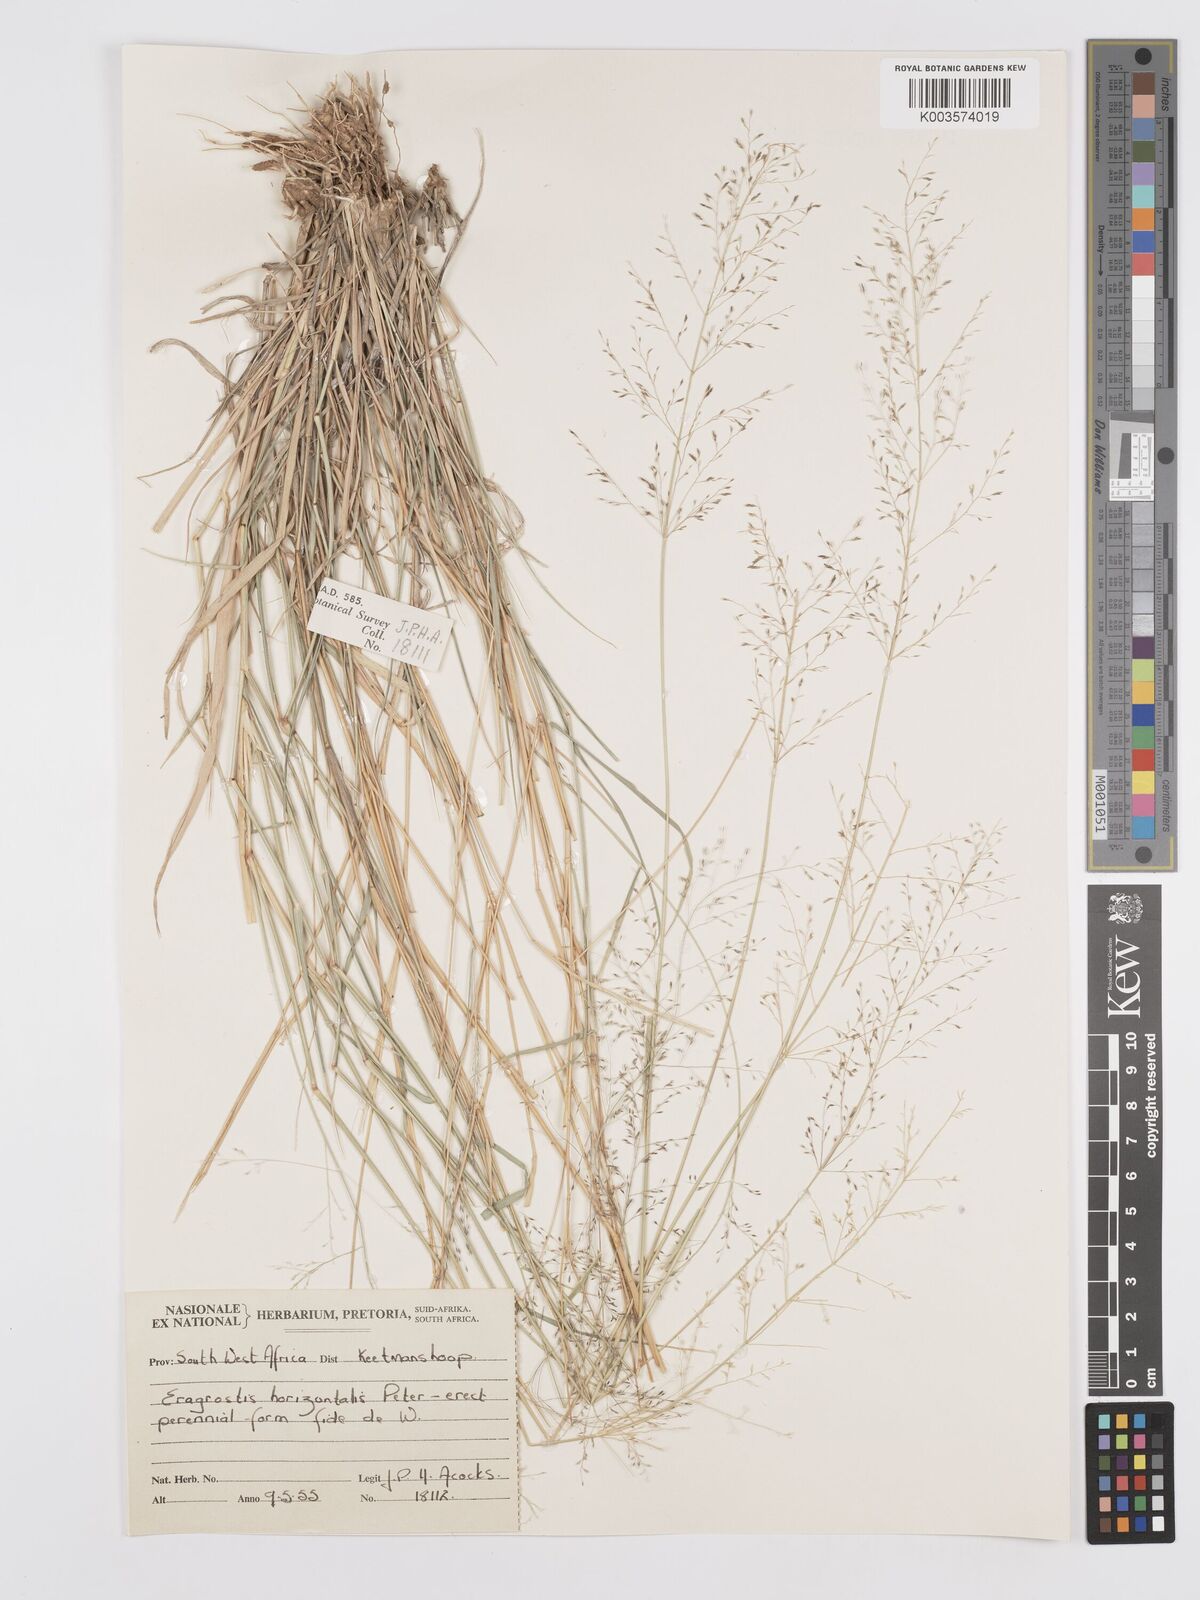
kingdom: Plantae
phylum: Tracheophyta
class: Liliopsida
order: Poales
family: Poaceae
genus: Eragrostis
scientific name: Eragrostis cylindriflora
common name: Cylinderflower lovegrass
